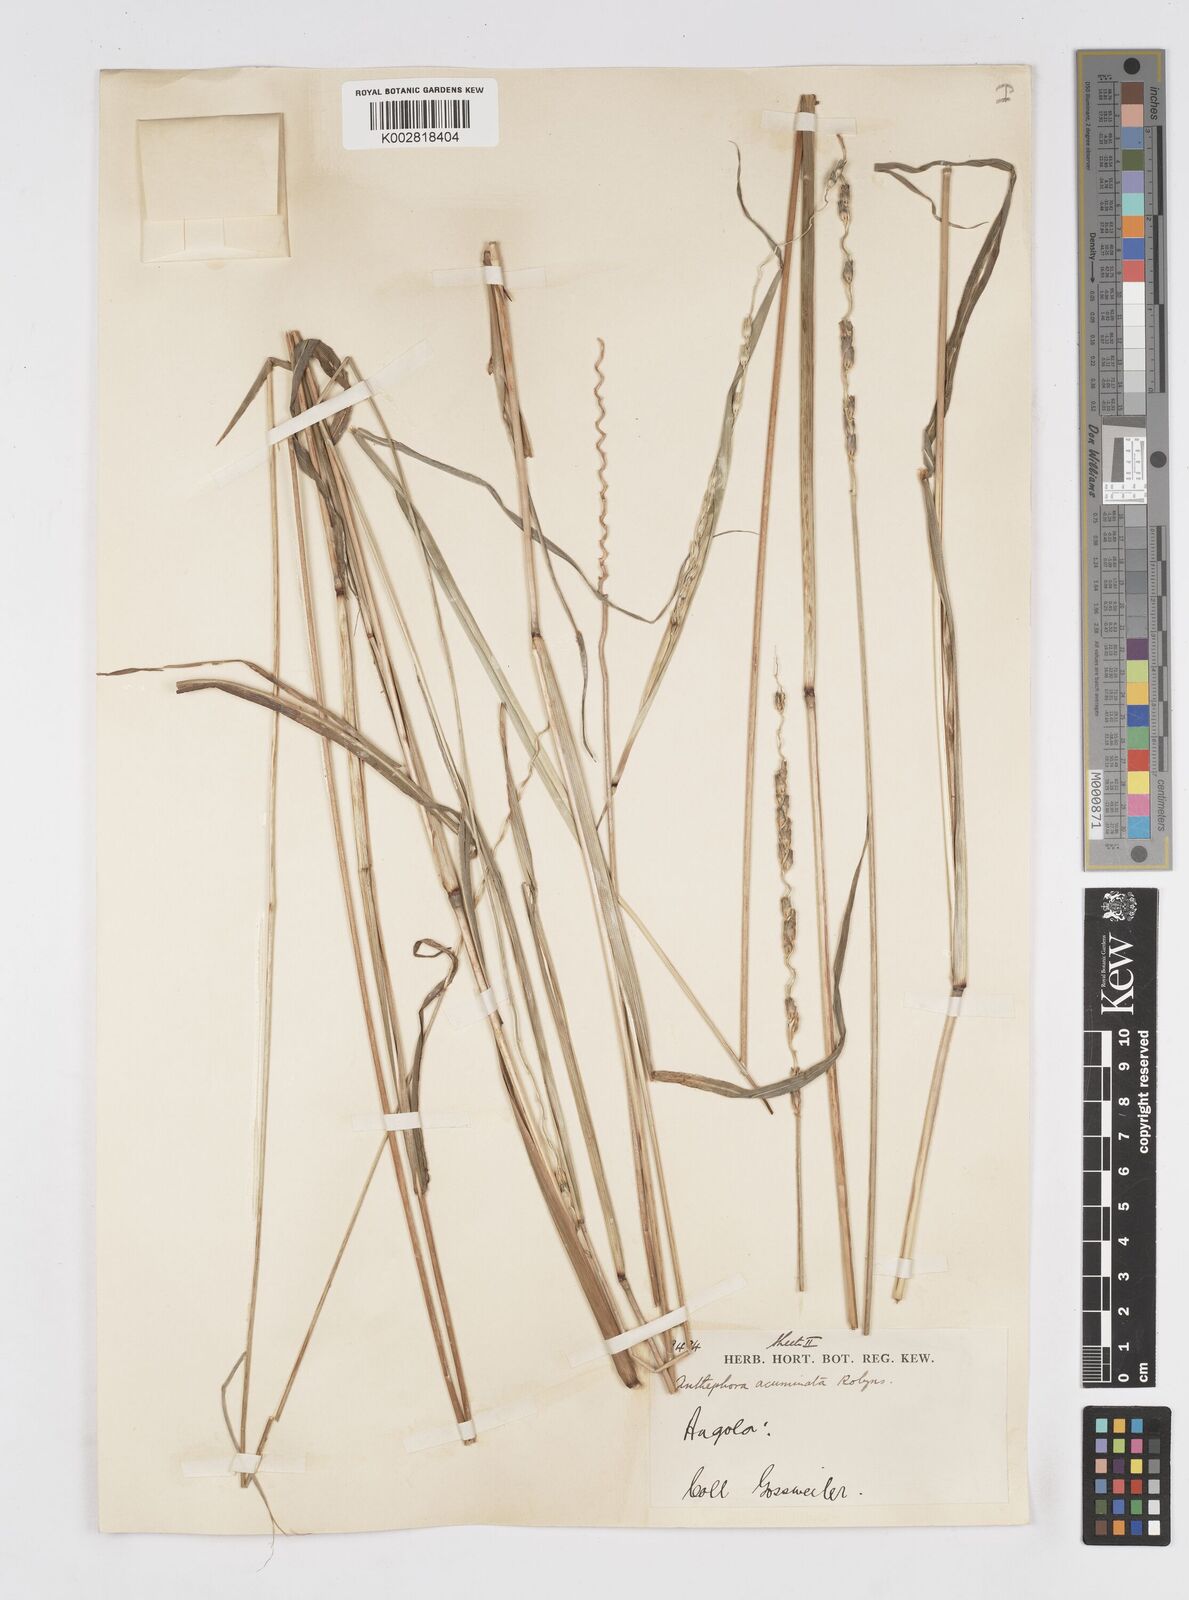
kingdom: Plantae
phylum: Tracheophyta
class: Liliopsida
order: Poales
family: Poaceae
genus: Anthephora
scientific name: Anthephora elongata
